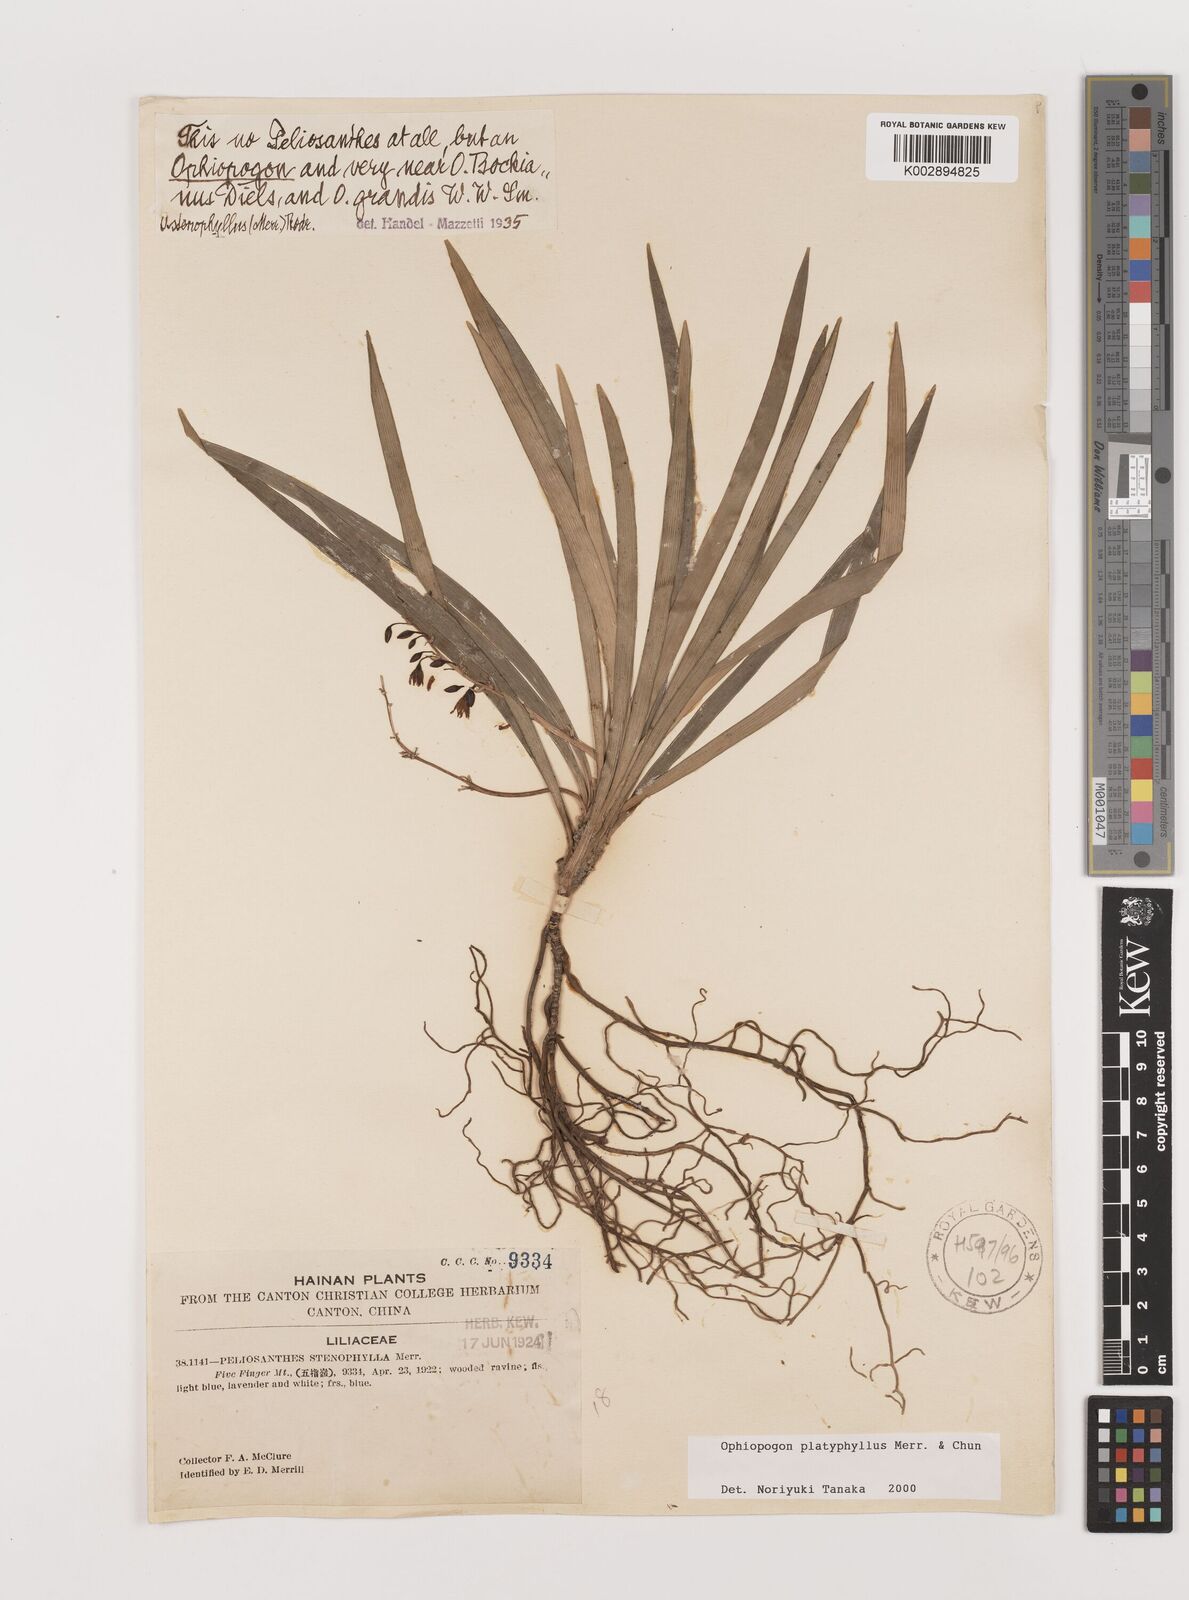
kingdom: Plantae
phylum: Tracheophyta
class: Liliopsida
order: Asparagales
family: Asparagaceae
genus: Ophiopogon
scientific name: Ophiopogon platyphyllus
